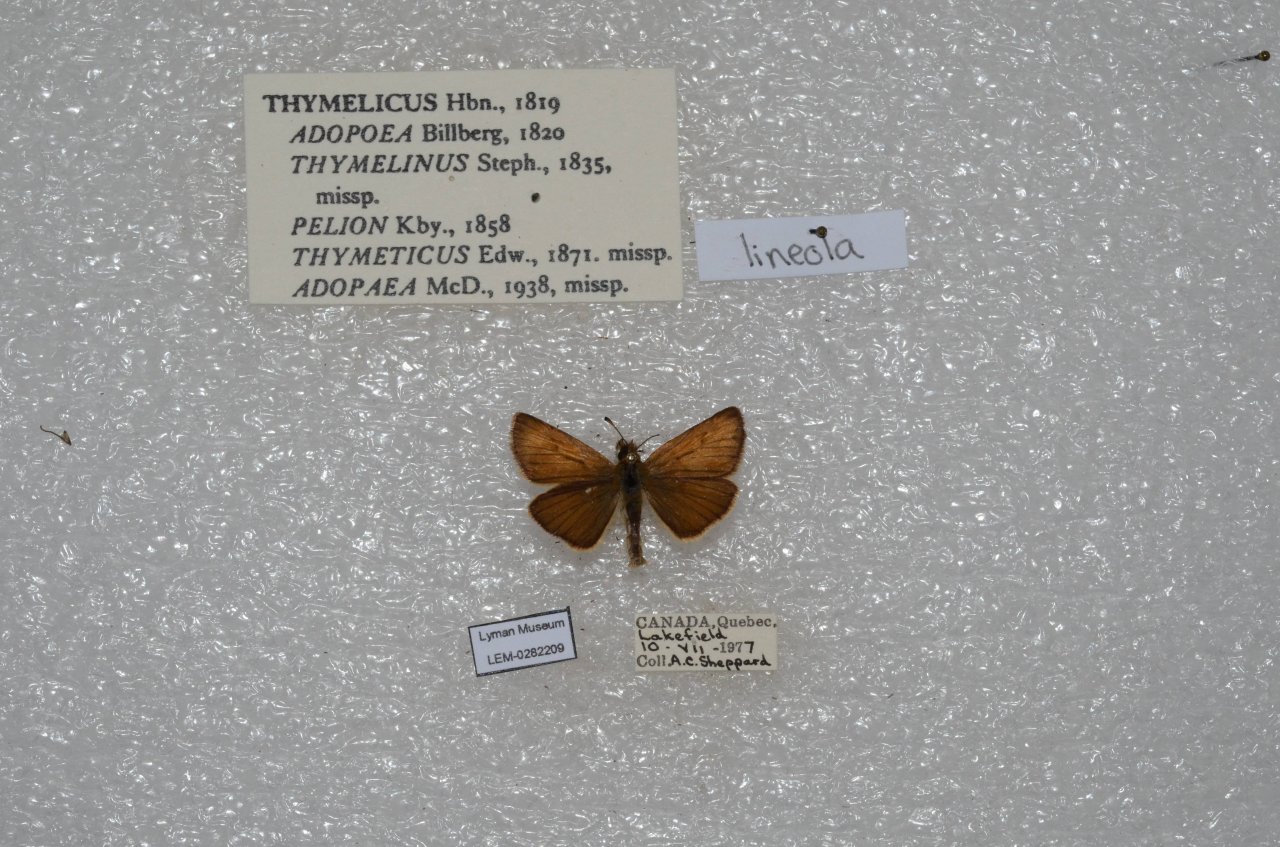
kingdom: Animalia
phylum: Arthropoda
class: Insecta
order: Lepidoptera
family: Hesperiidae
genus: Thymelicus
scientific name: Thymelicus lineola
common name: European Skipper
